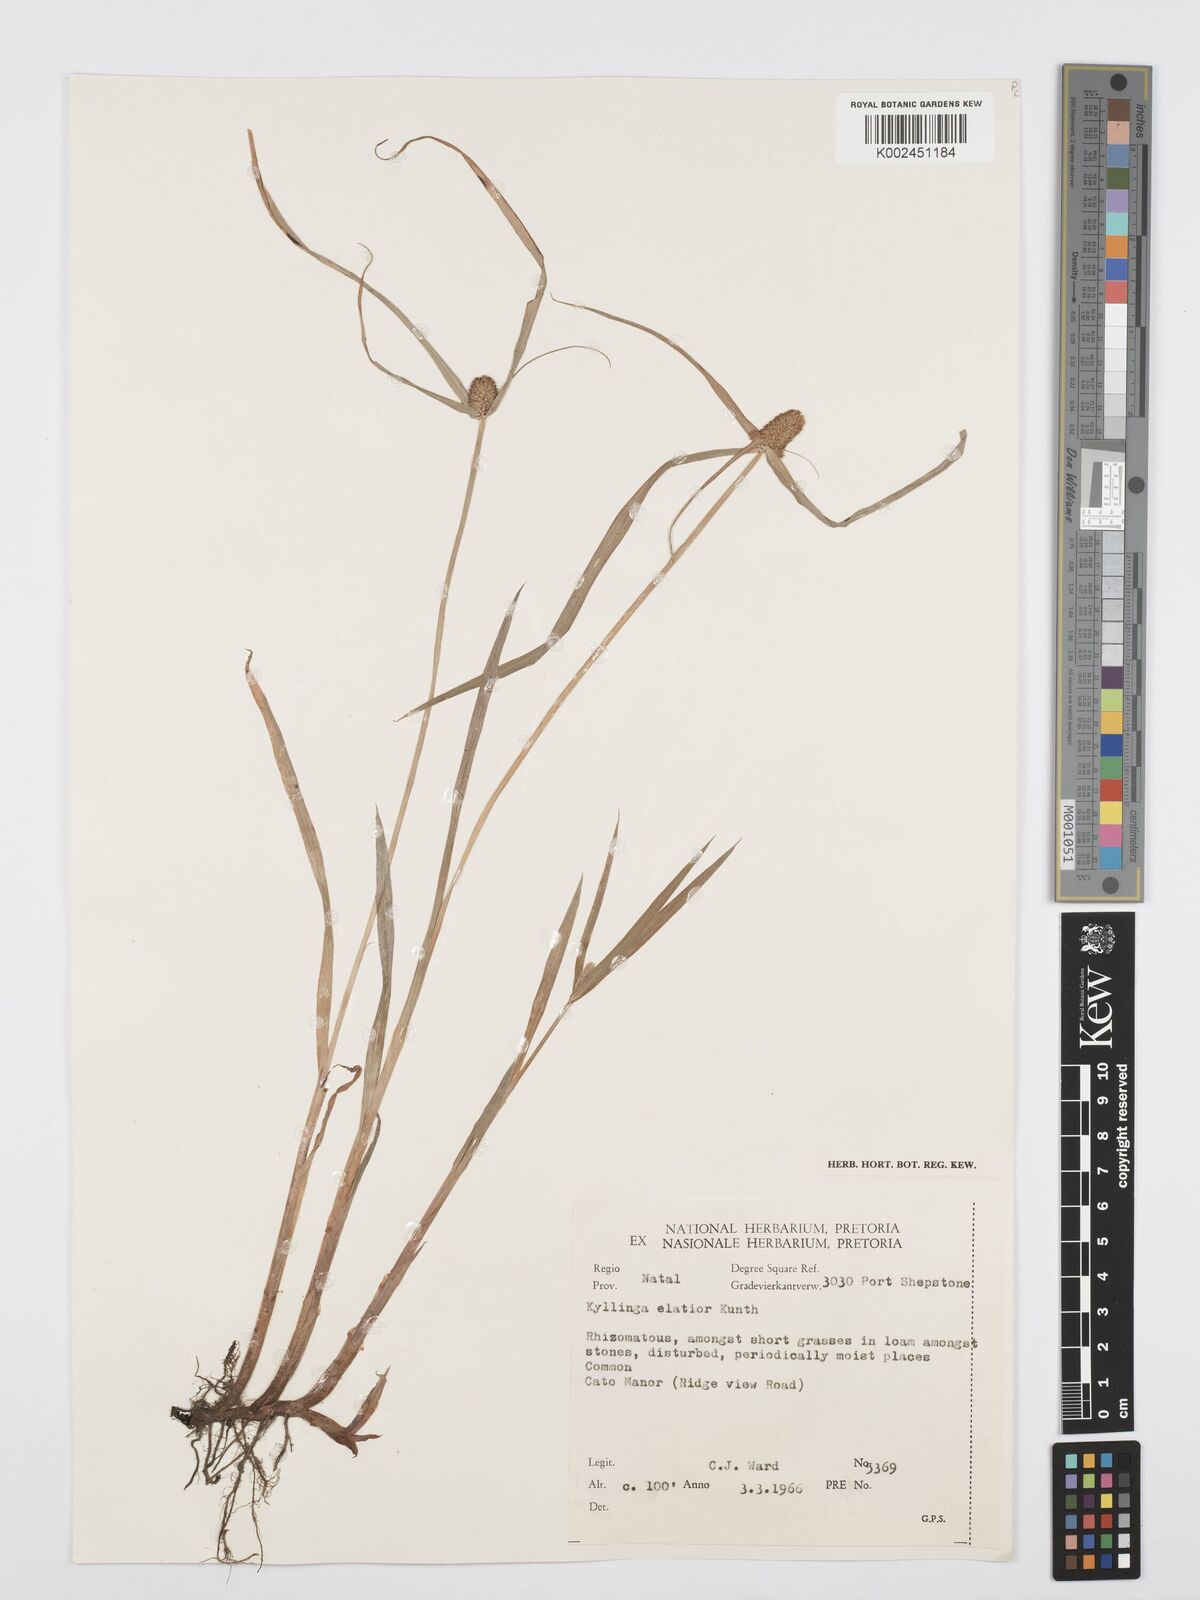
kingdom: Plantae
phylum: Tracheophyta
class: Liliopsida
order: Poales
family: Cyperaceae
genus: Cyperus
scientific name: Cyperus
